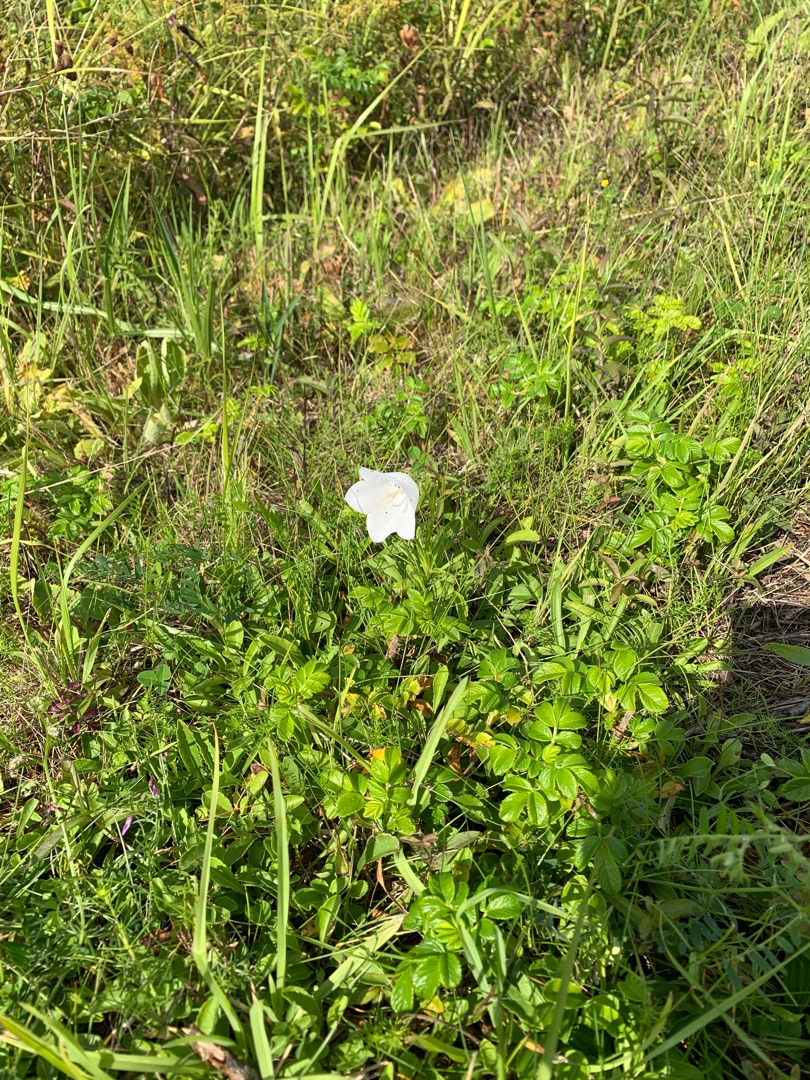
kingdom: Plantae
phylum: Tracheophyta
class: Magnoliopsida
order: Asterales
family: Campanulaceae
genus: Campanula
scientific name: Campanula persicifolia
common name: Smalbladet klokke
